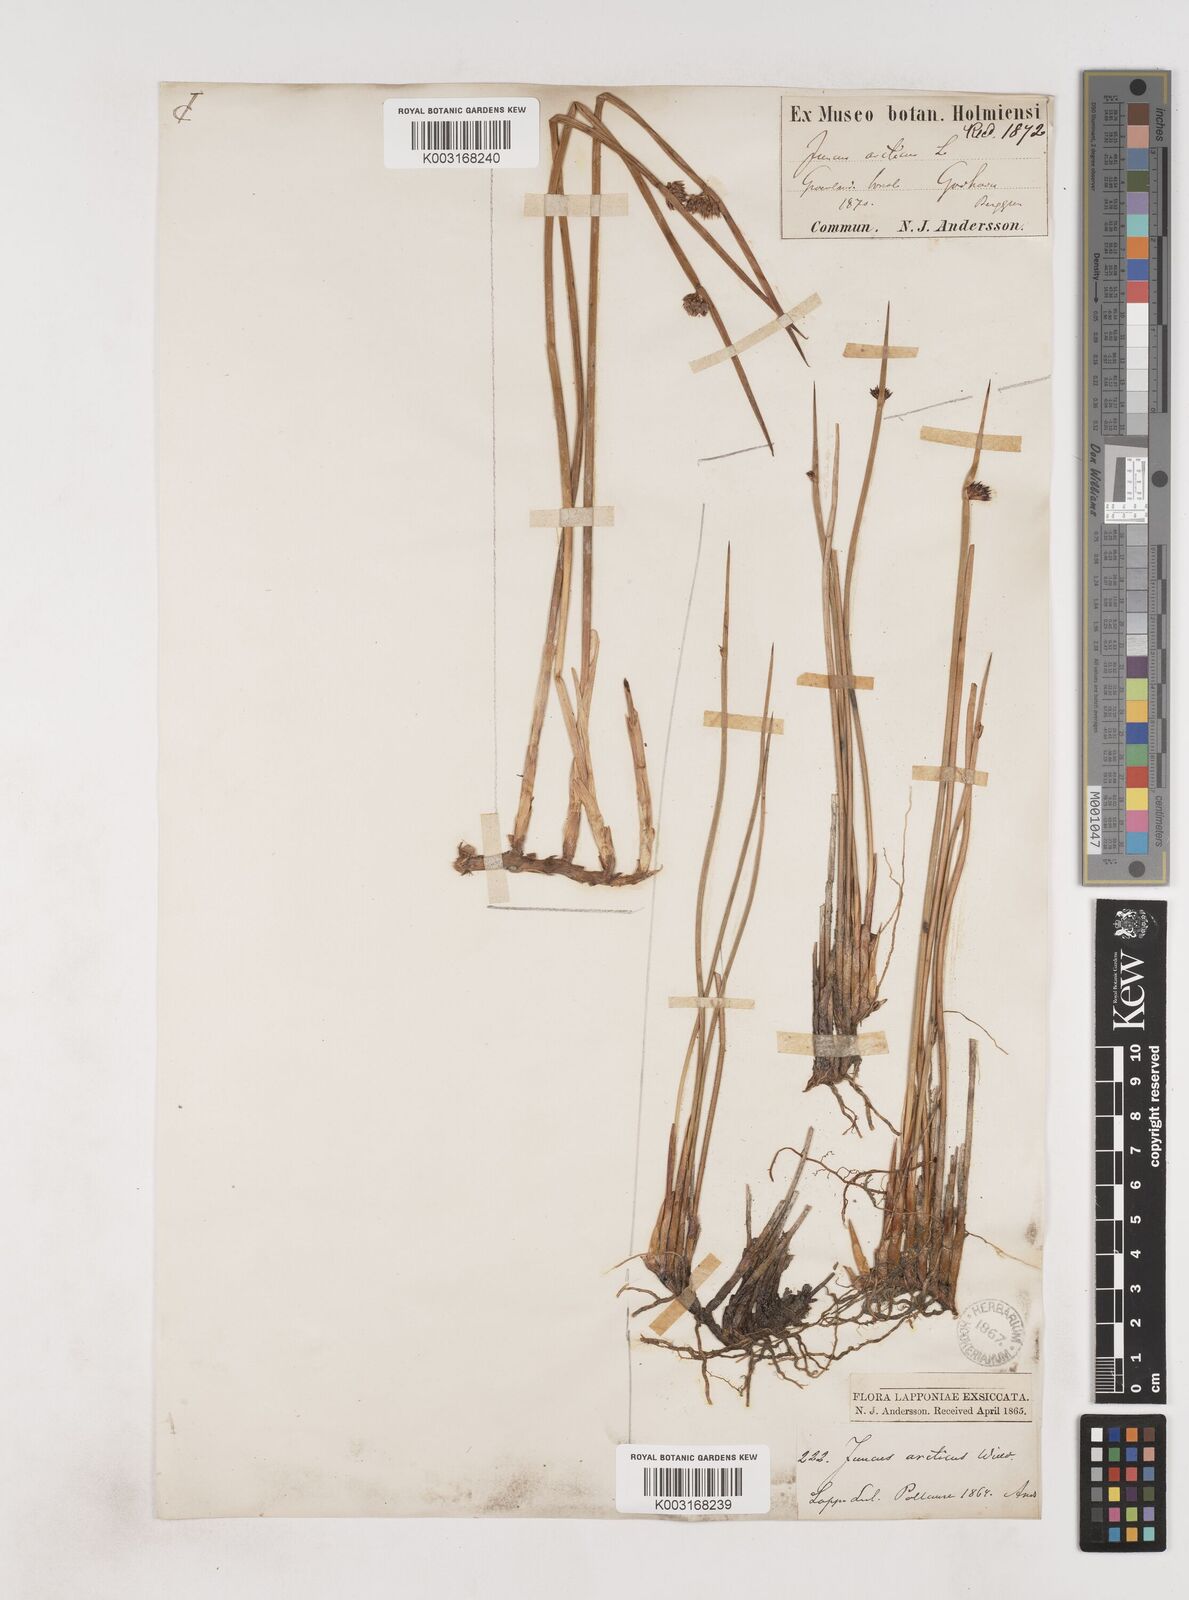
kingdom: Plantae
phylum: Tracheophyta
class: Liliopsida
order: Poales
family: Juncaceae
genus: Juncus
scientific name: Juncus arcticus
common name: Arctic rush
